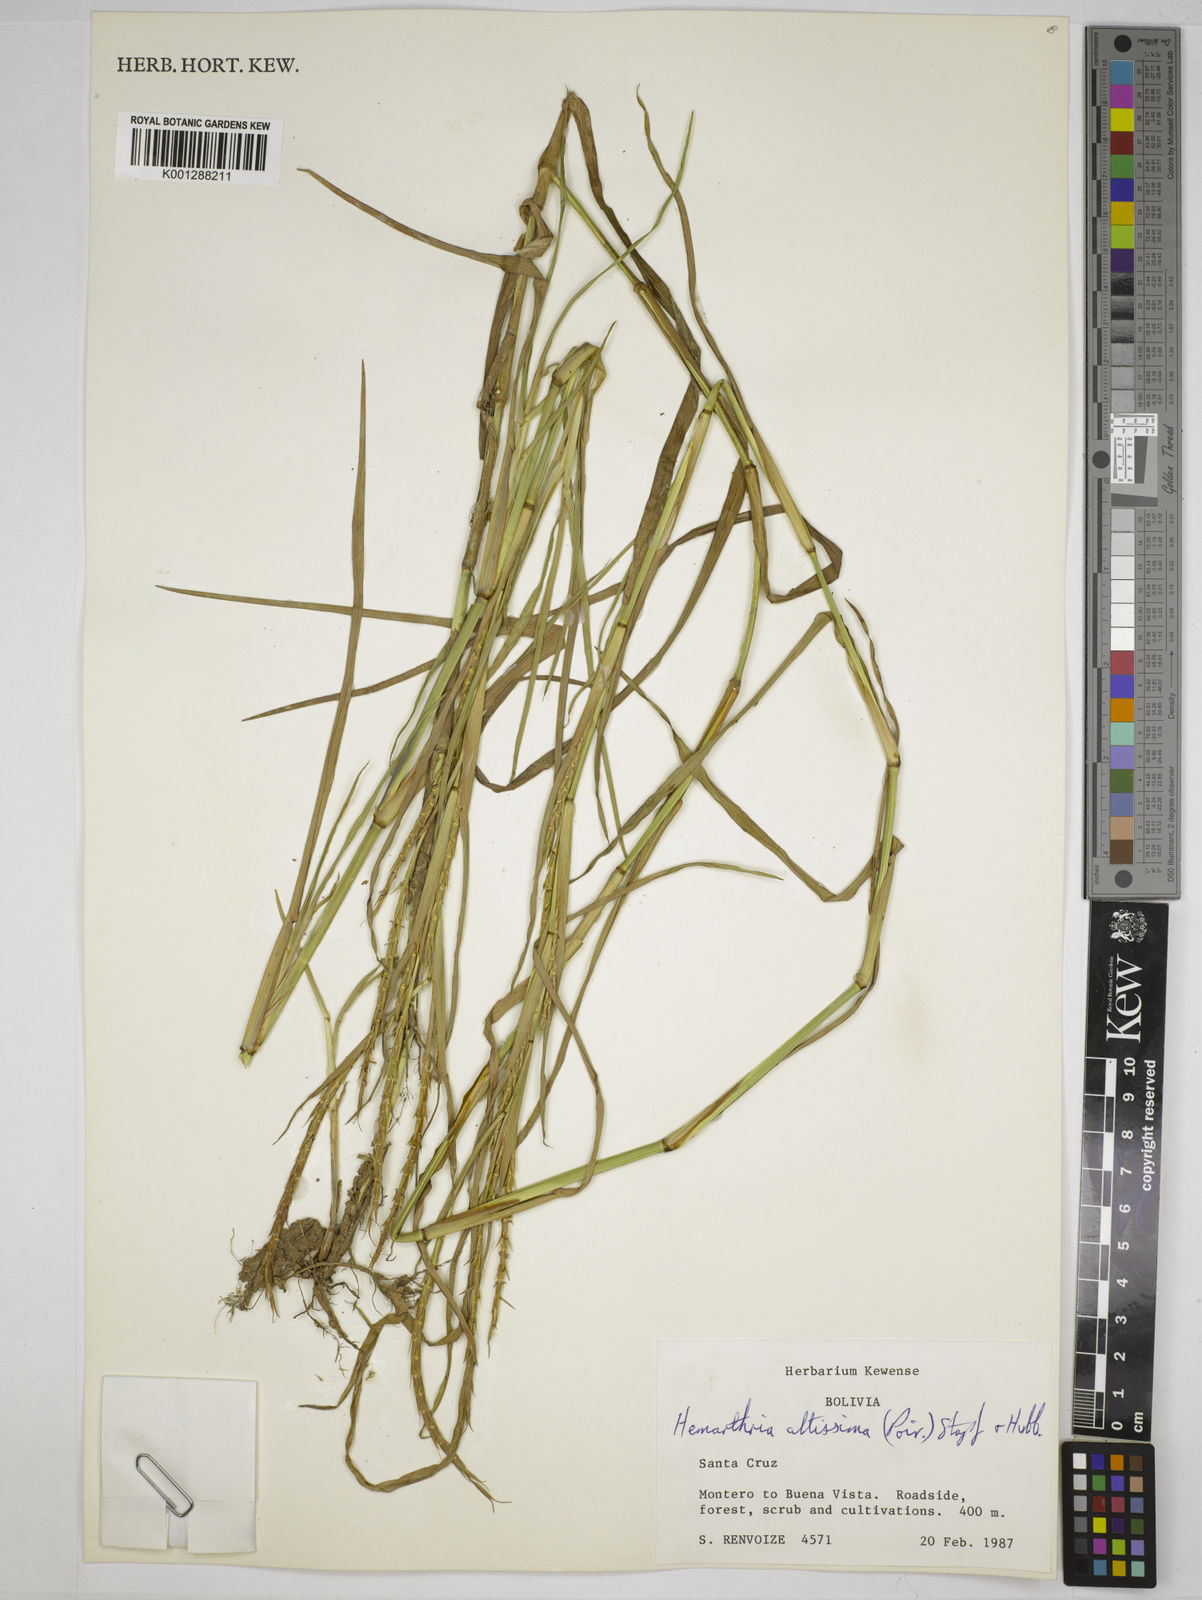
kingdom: Plantae
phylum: Tracheophyta
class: Liliopsida
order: Poales
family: Poaceae
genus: Hemarthria
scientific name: Hemarthria altissima
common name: African jointgrass
